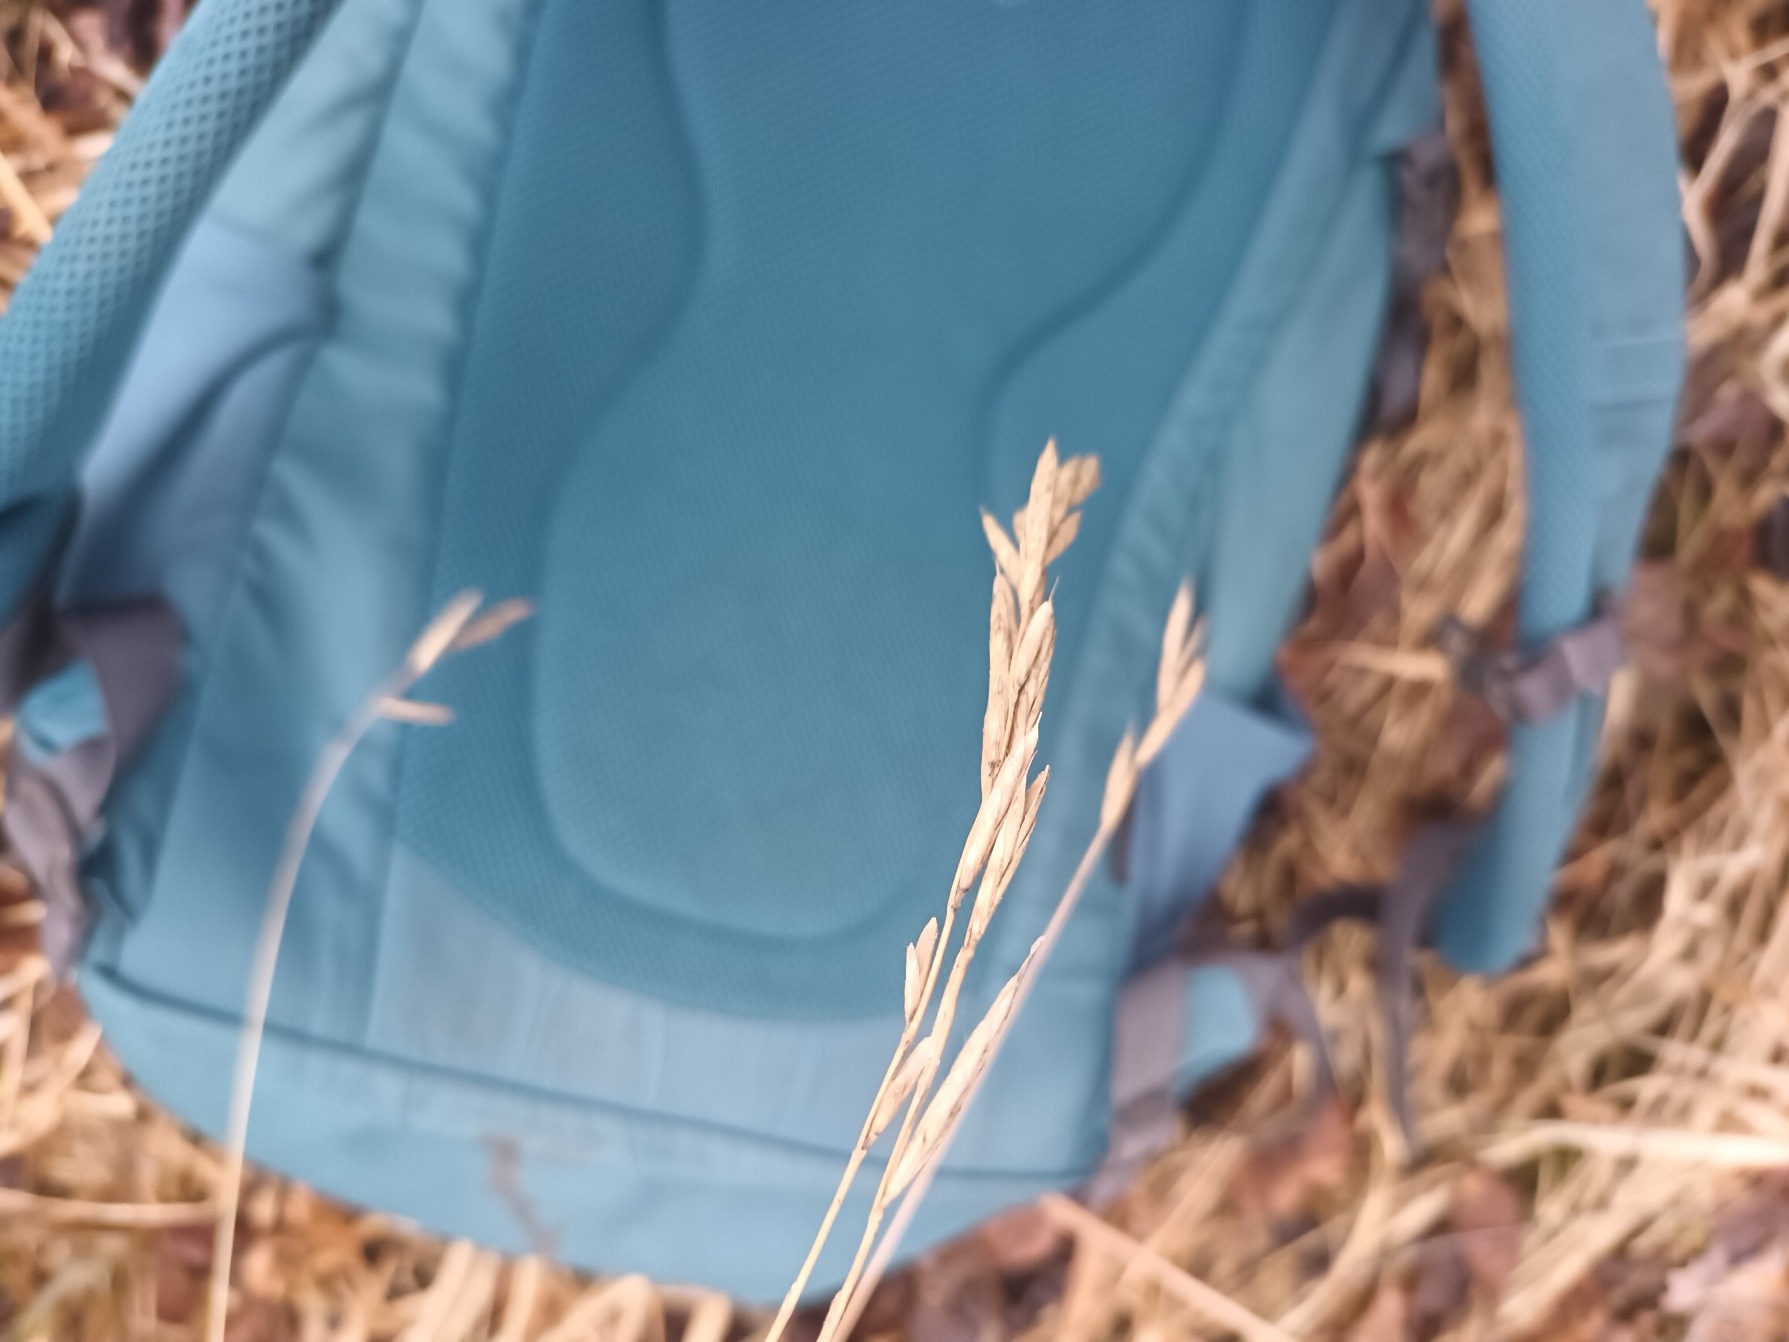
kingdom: Plantae
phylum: Tracheophyta
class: Liliopsida
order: Poales
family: Poaceae
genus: Brachypodium
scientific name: Brachypodium pinnatum
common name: Bakke-stilkaks
